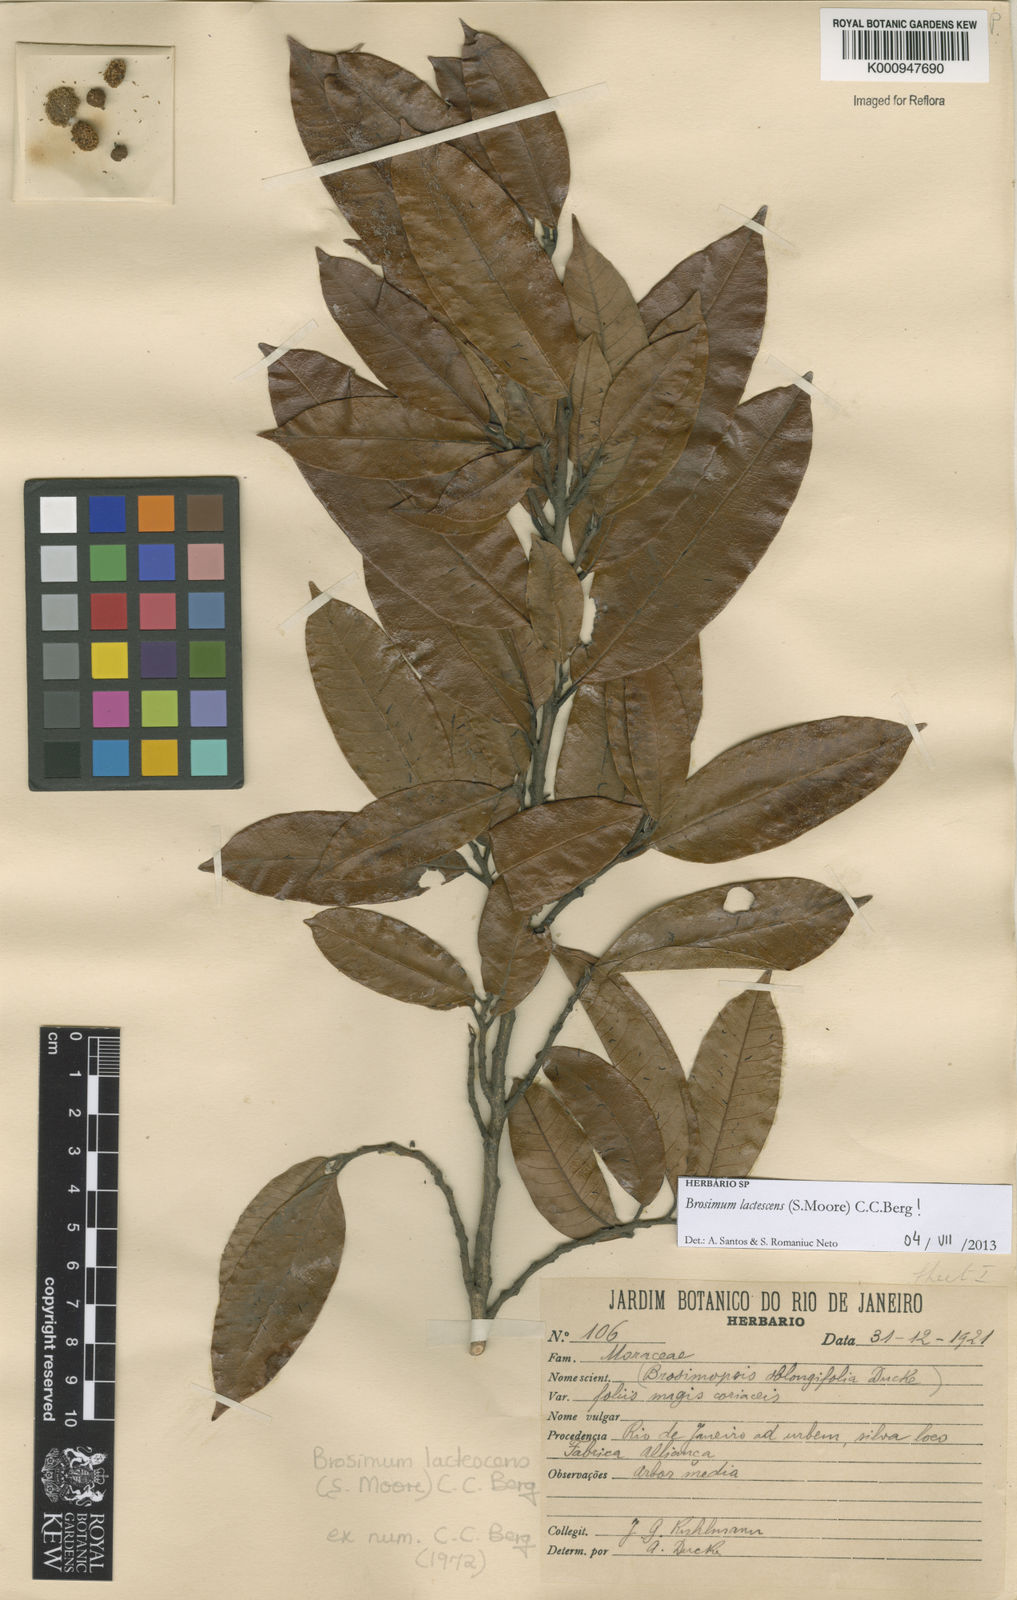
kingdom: Plantae
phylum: Tracheophyta
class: Magnoliopsida
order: Rosales
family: Moraceae
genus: Brosimum
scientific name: Brosimum lactescens
